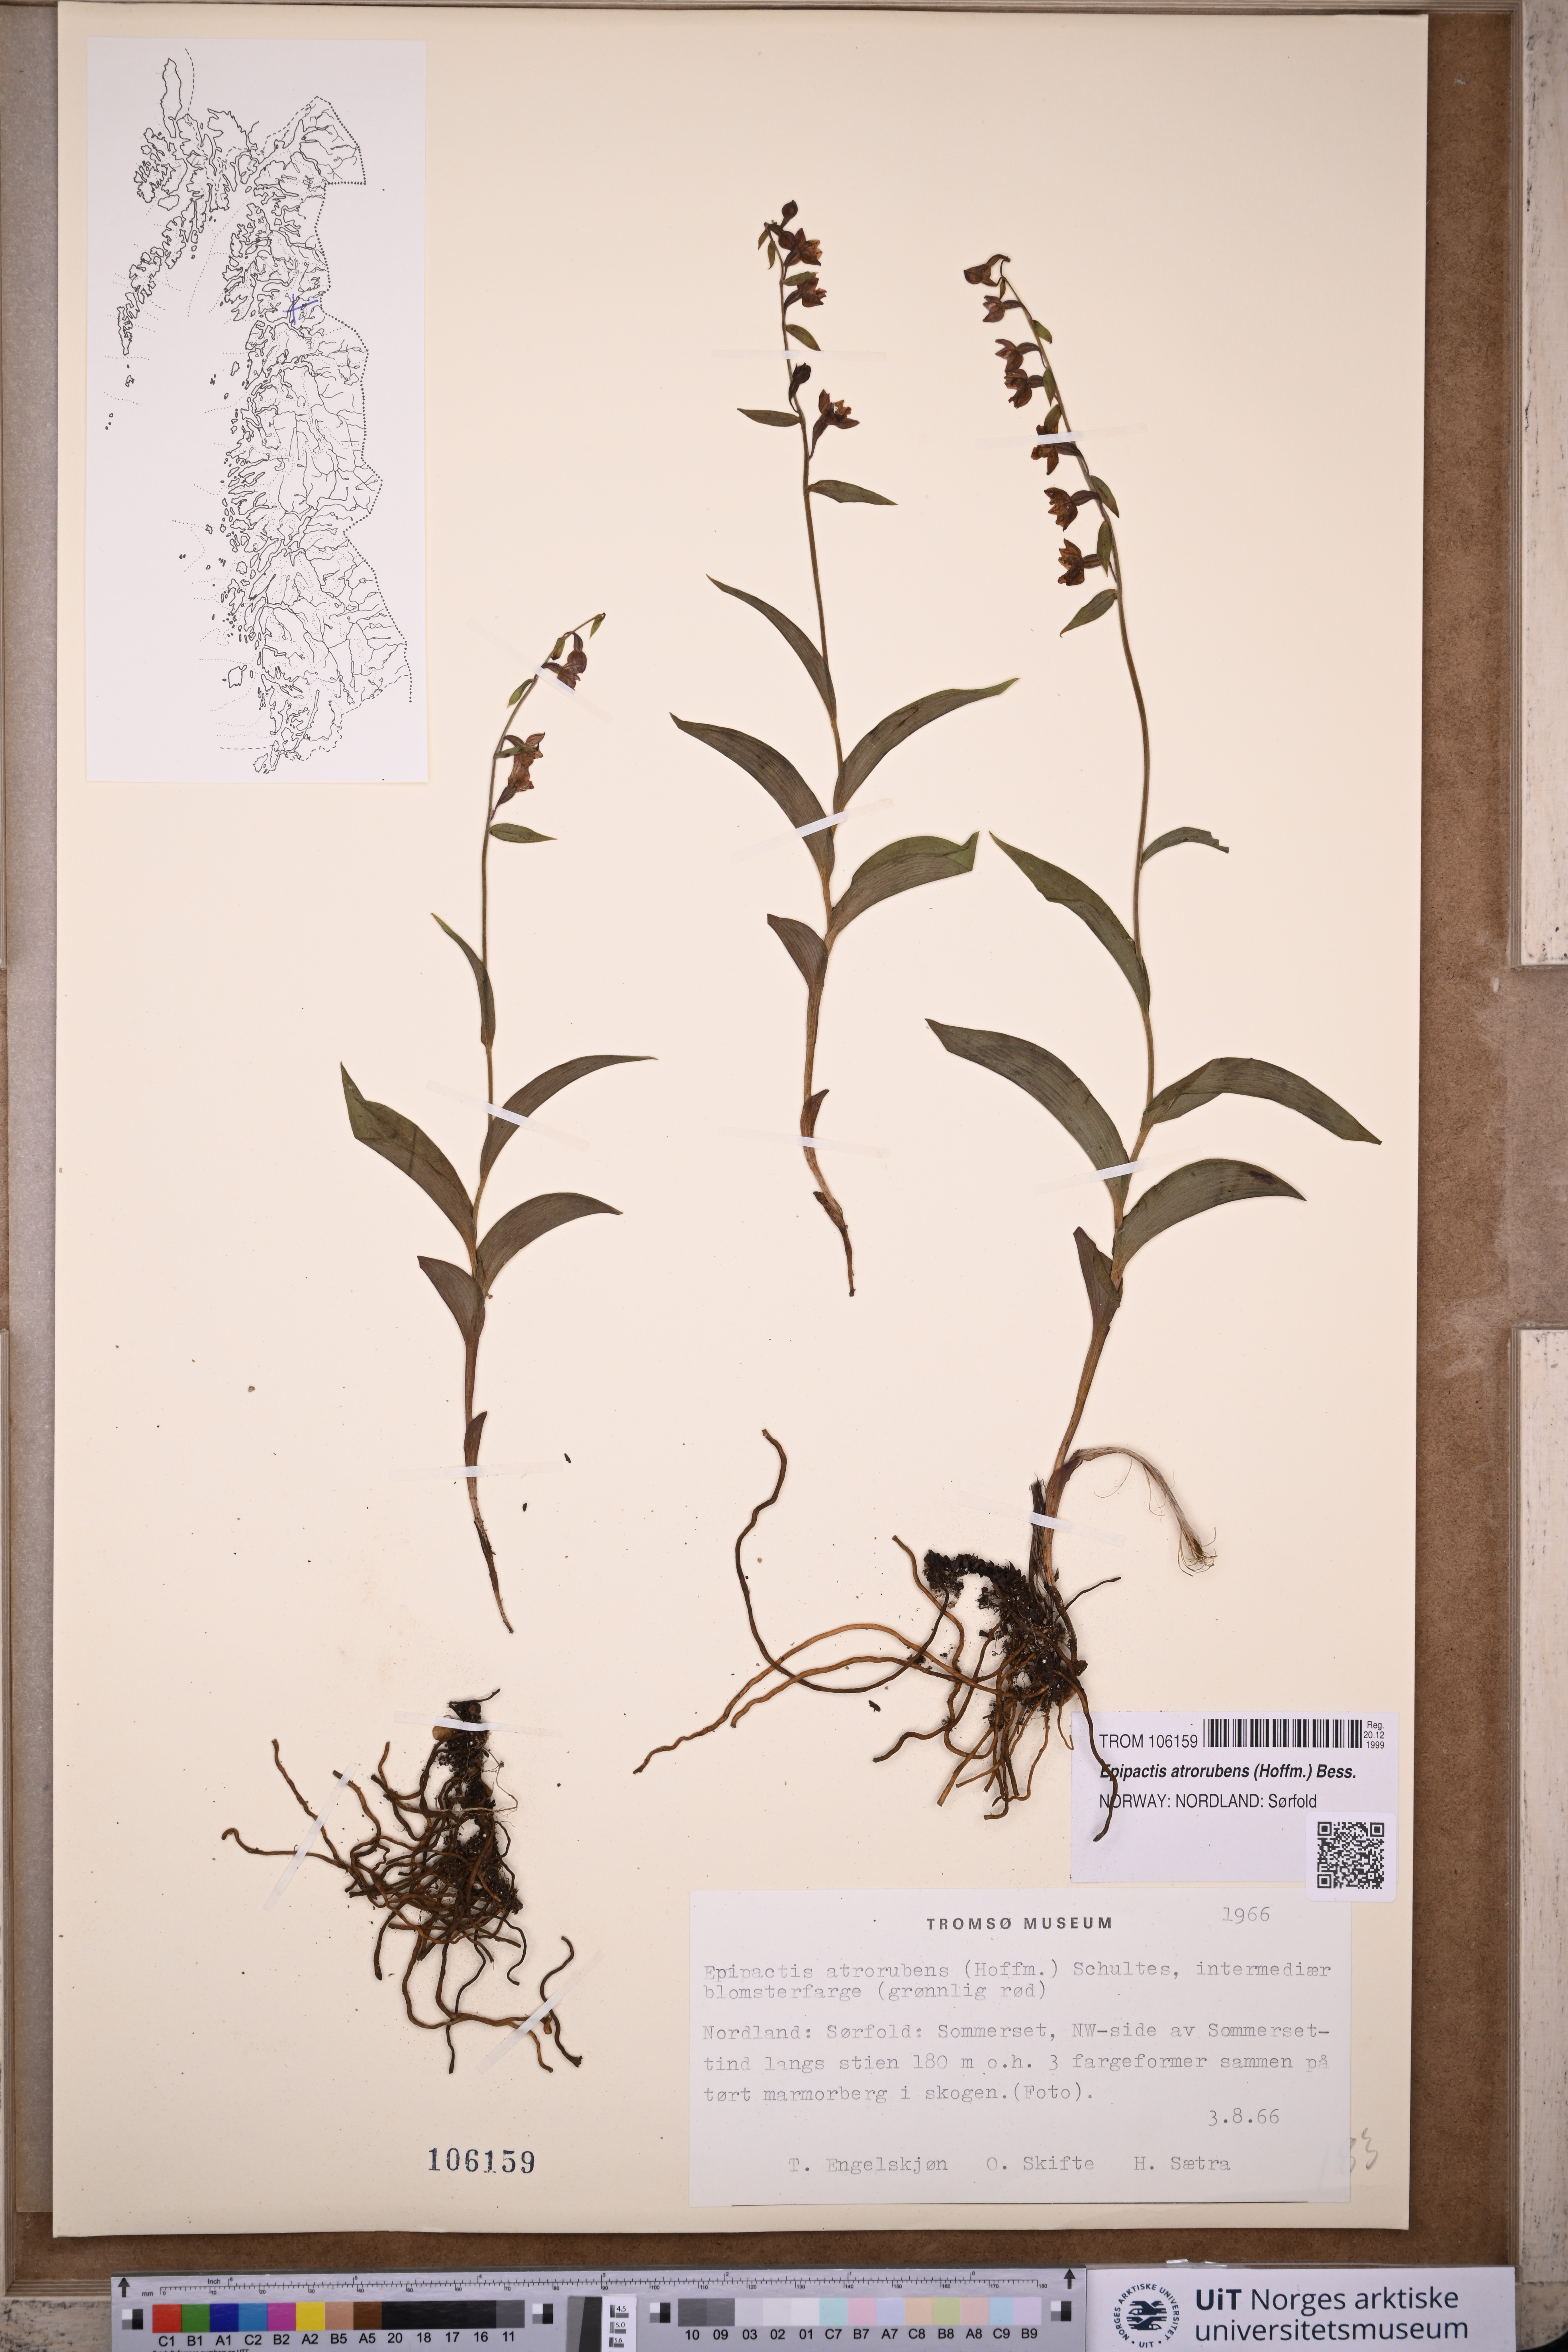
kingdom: Plantae
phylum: Tracheophyta
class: Liliopsida
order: Asparagales
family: Orchidaceae
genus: Epipactis
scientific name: Epipactis atrorubens
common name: Dark-red helleborine
